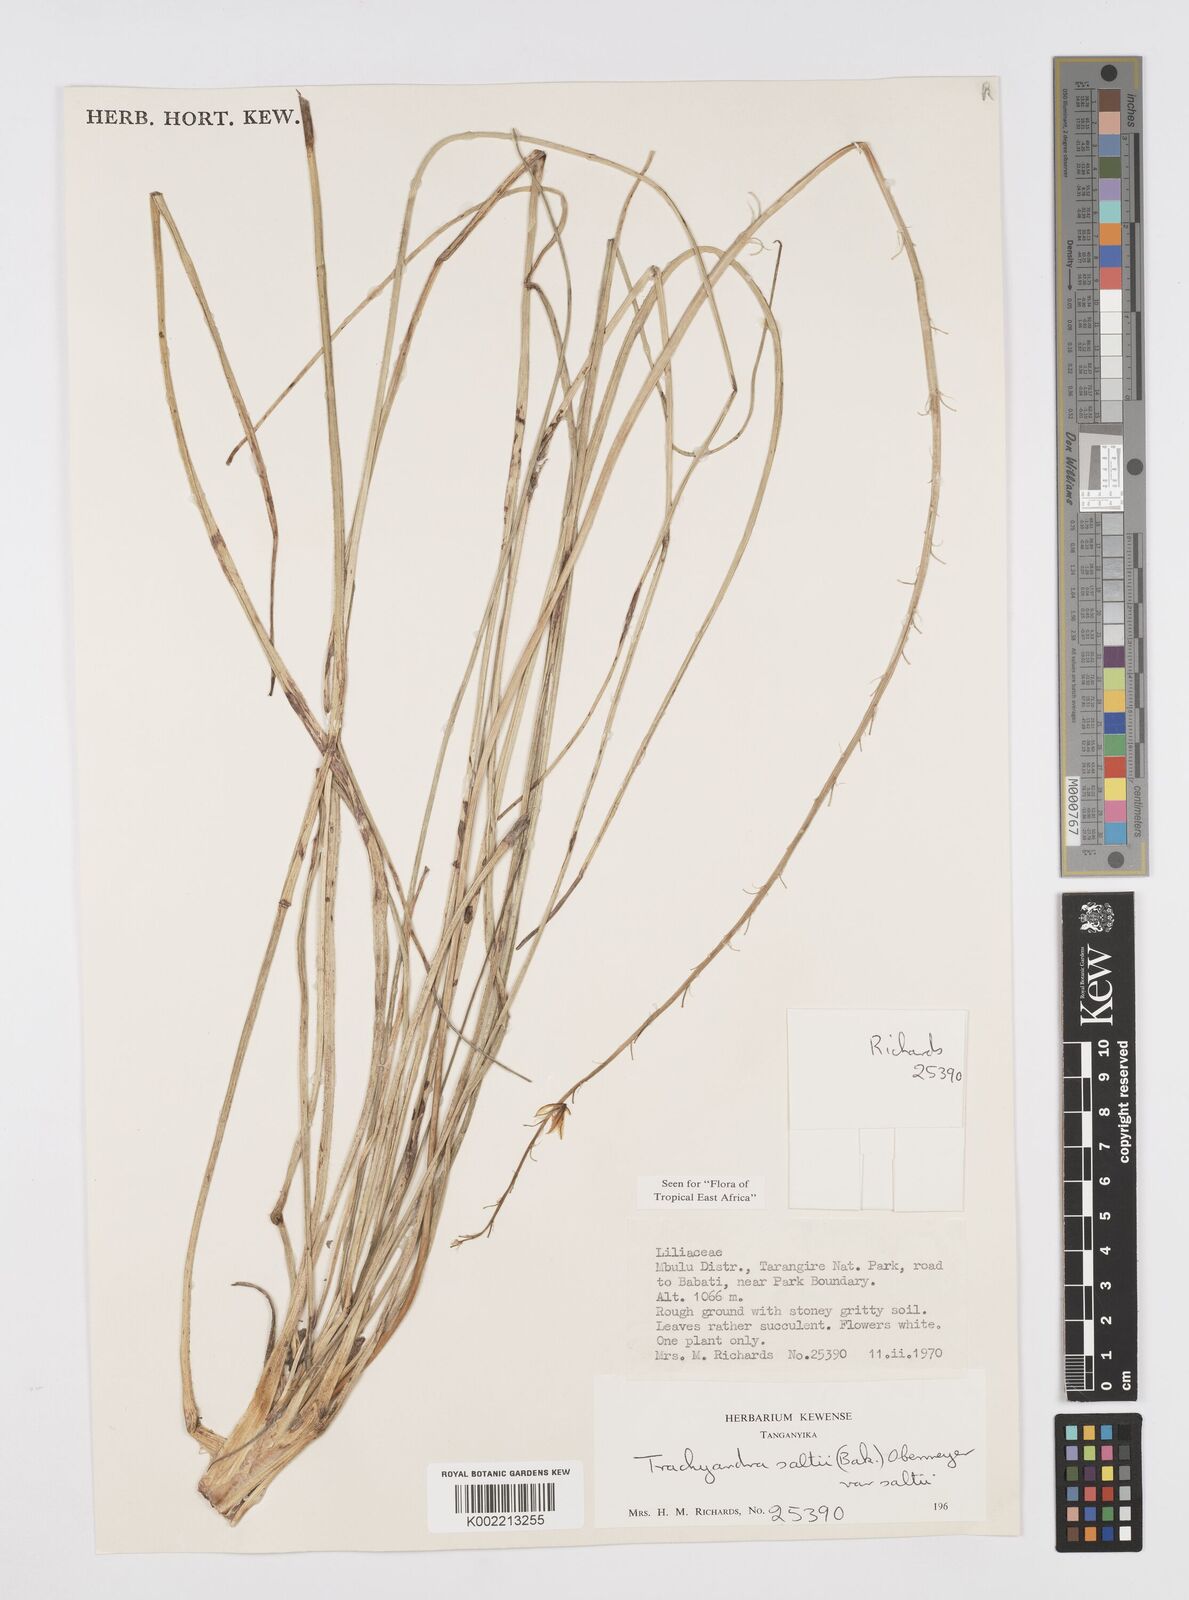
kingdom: Plantae
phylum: Tracheophyta
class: Liliopsida
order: Asparagales
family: Asphodelaceae
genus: Trachyandra
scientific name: Trachyandra saltii
